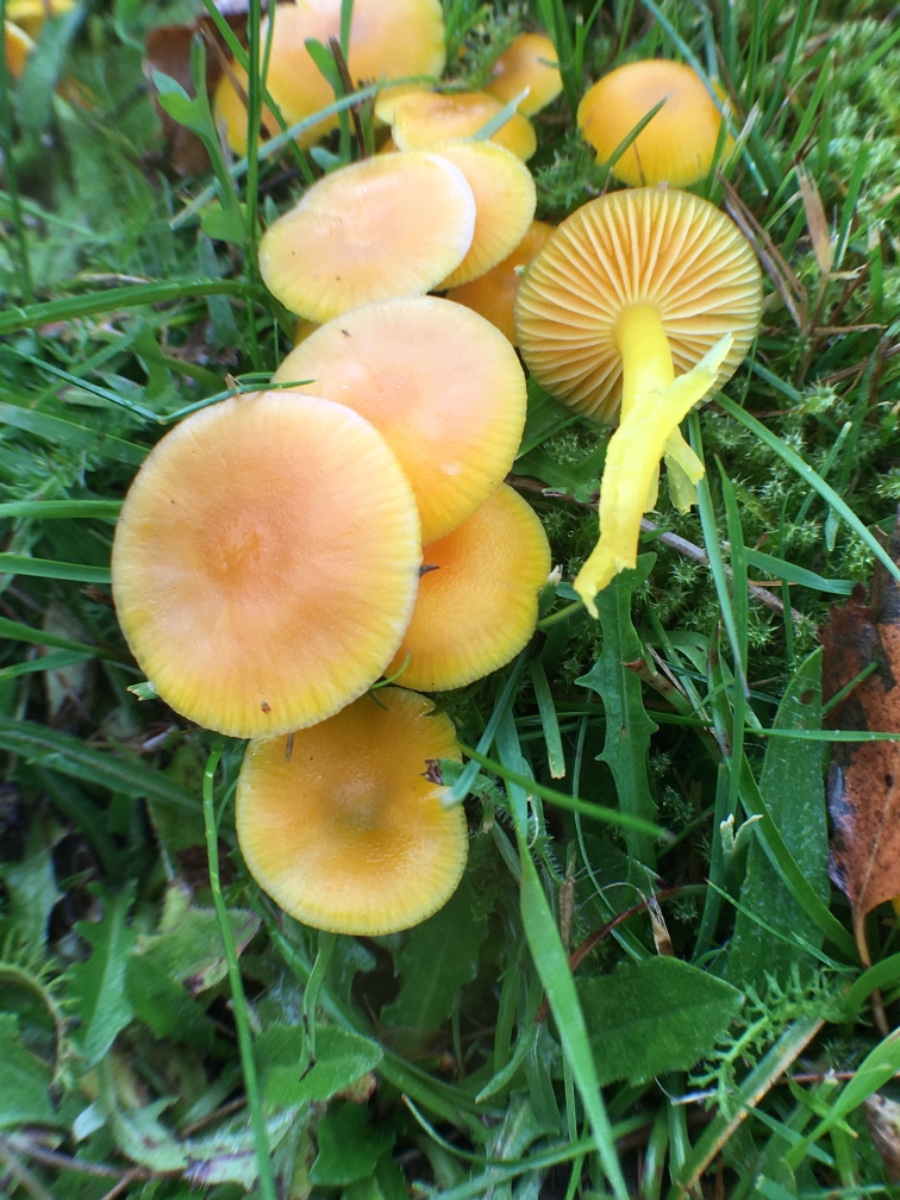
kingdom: Fungi
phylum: Basidiomycota
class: Agaricomycetes
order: Agaricales
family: Hygrophoraceae
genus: Hygrocybe
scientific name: Hygrocybe ceracea
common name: voksgul vokshat
